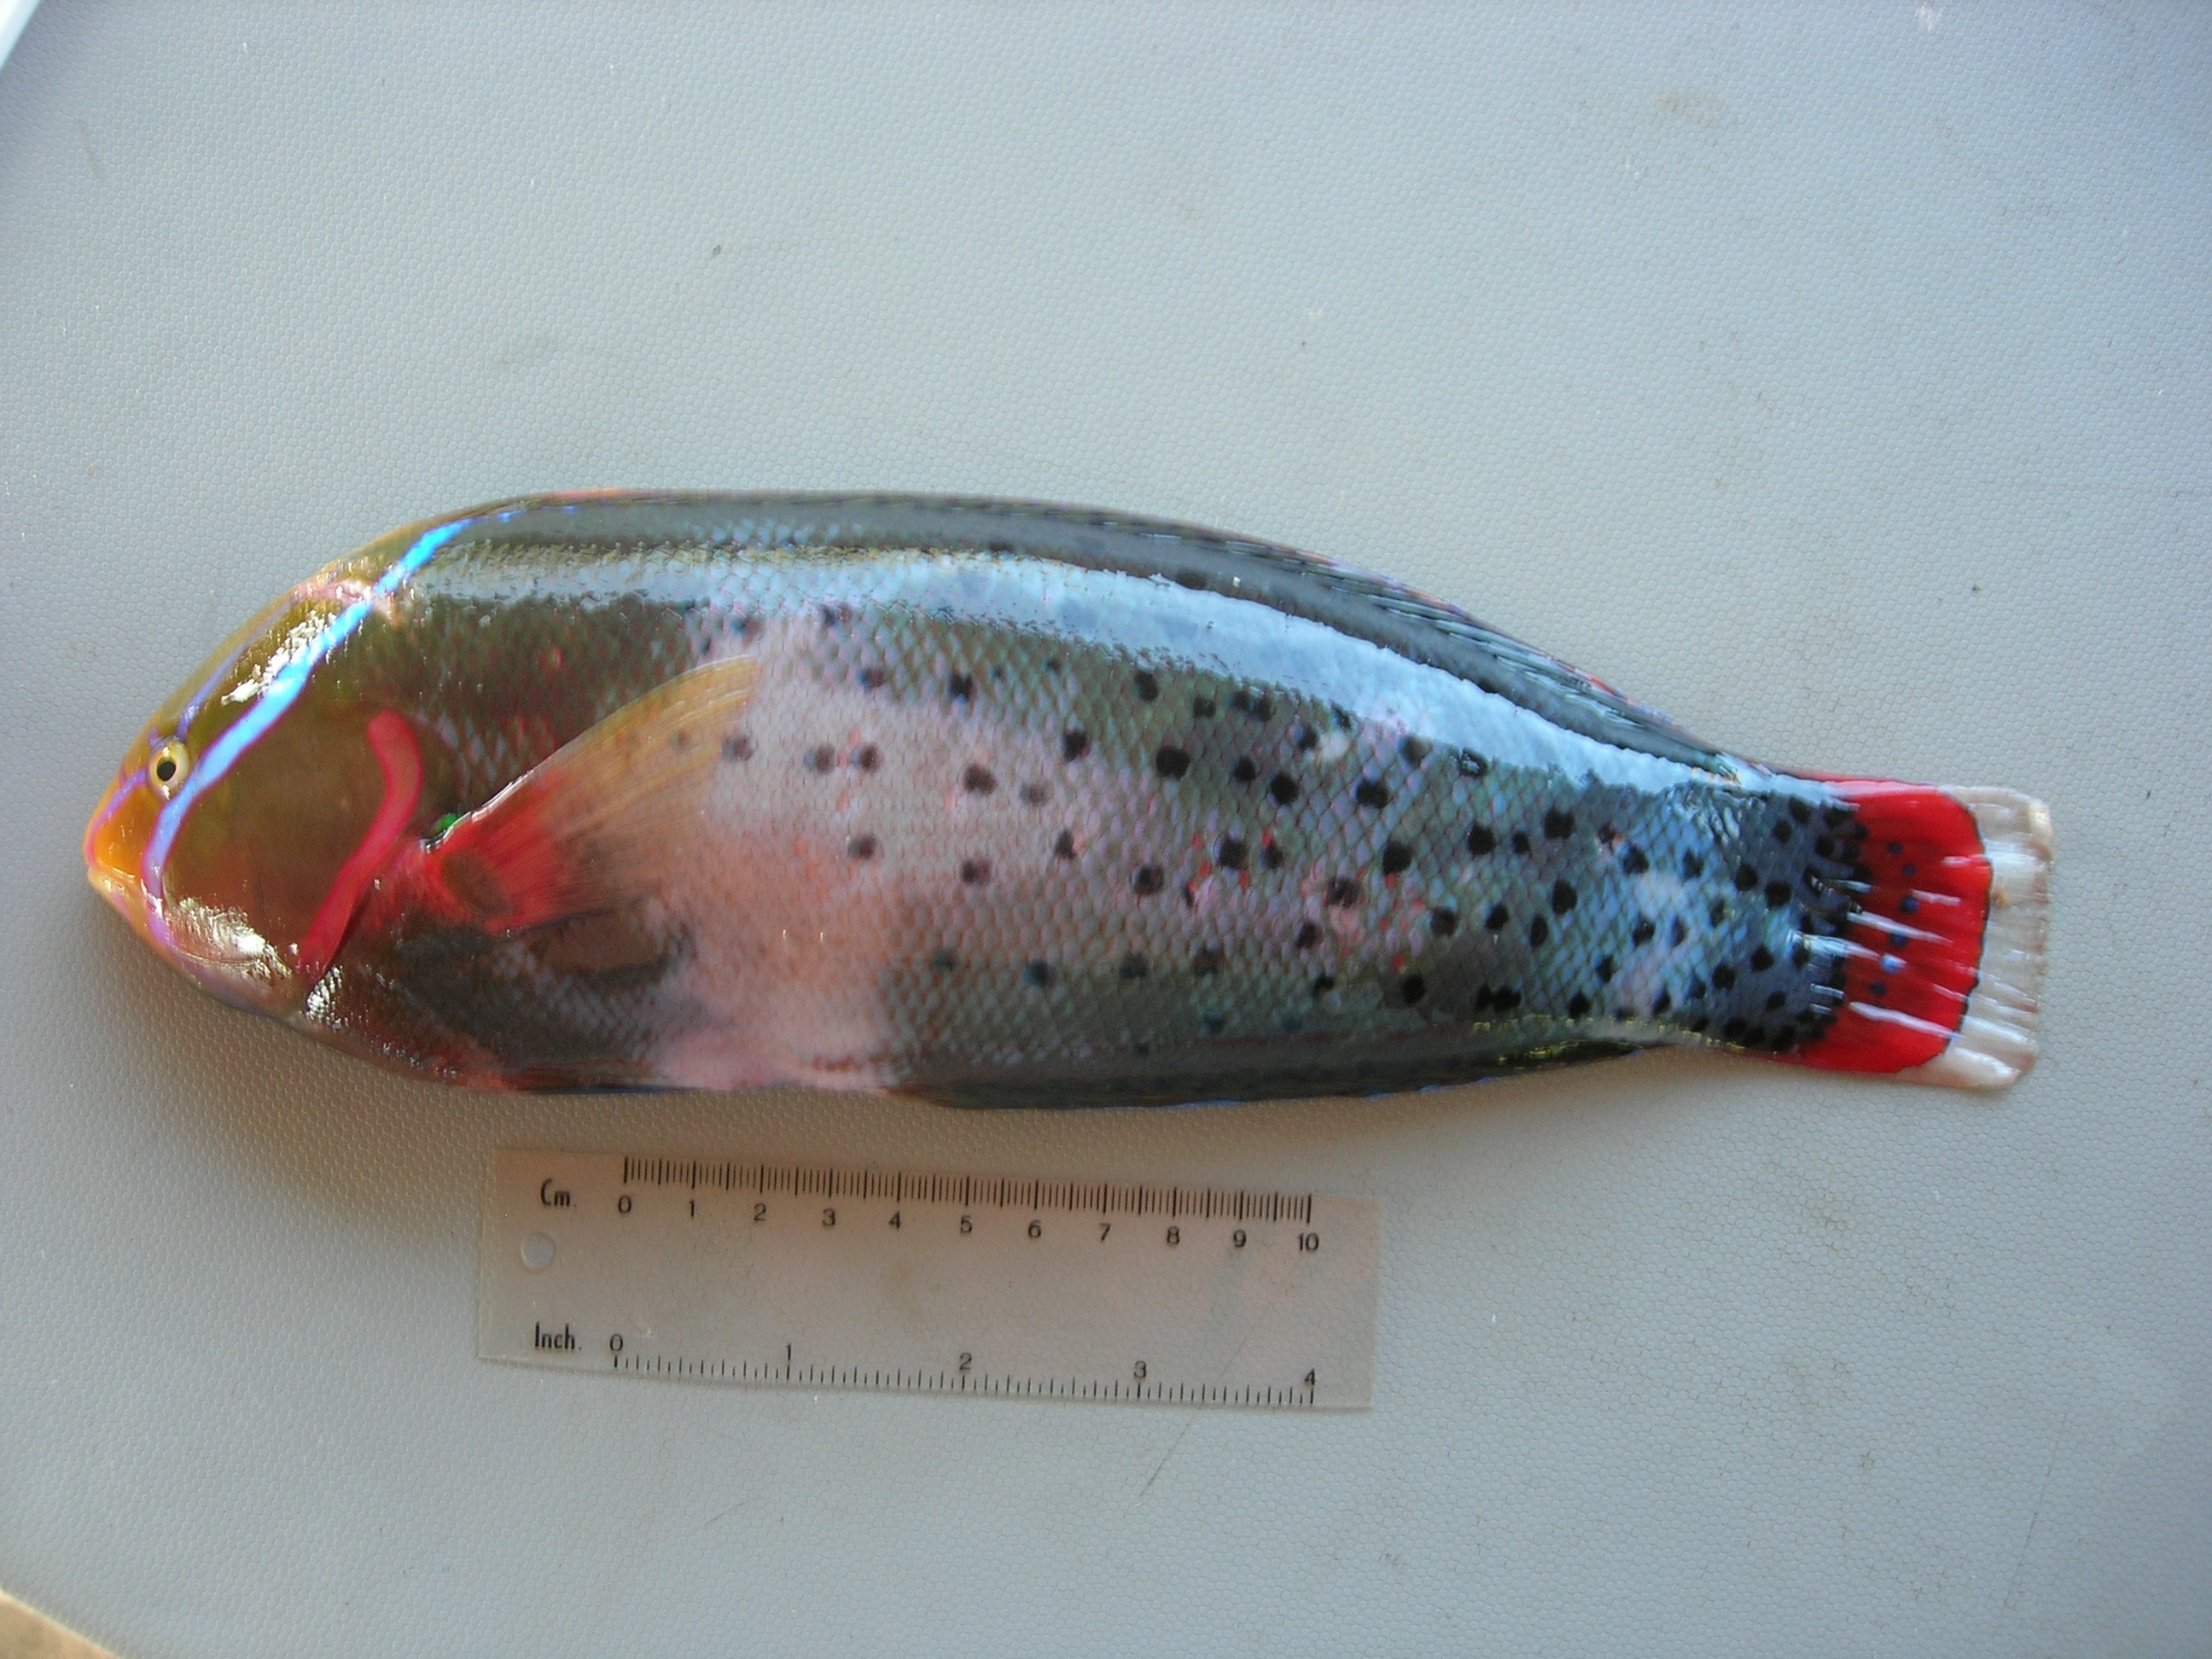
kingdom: Animalia
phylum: Chordata
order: Perciformes
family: Labridae
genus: Coris
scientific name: Coris formosa
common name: Queen coris
